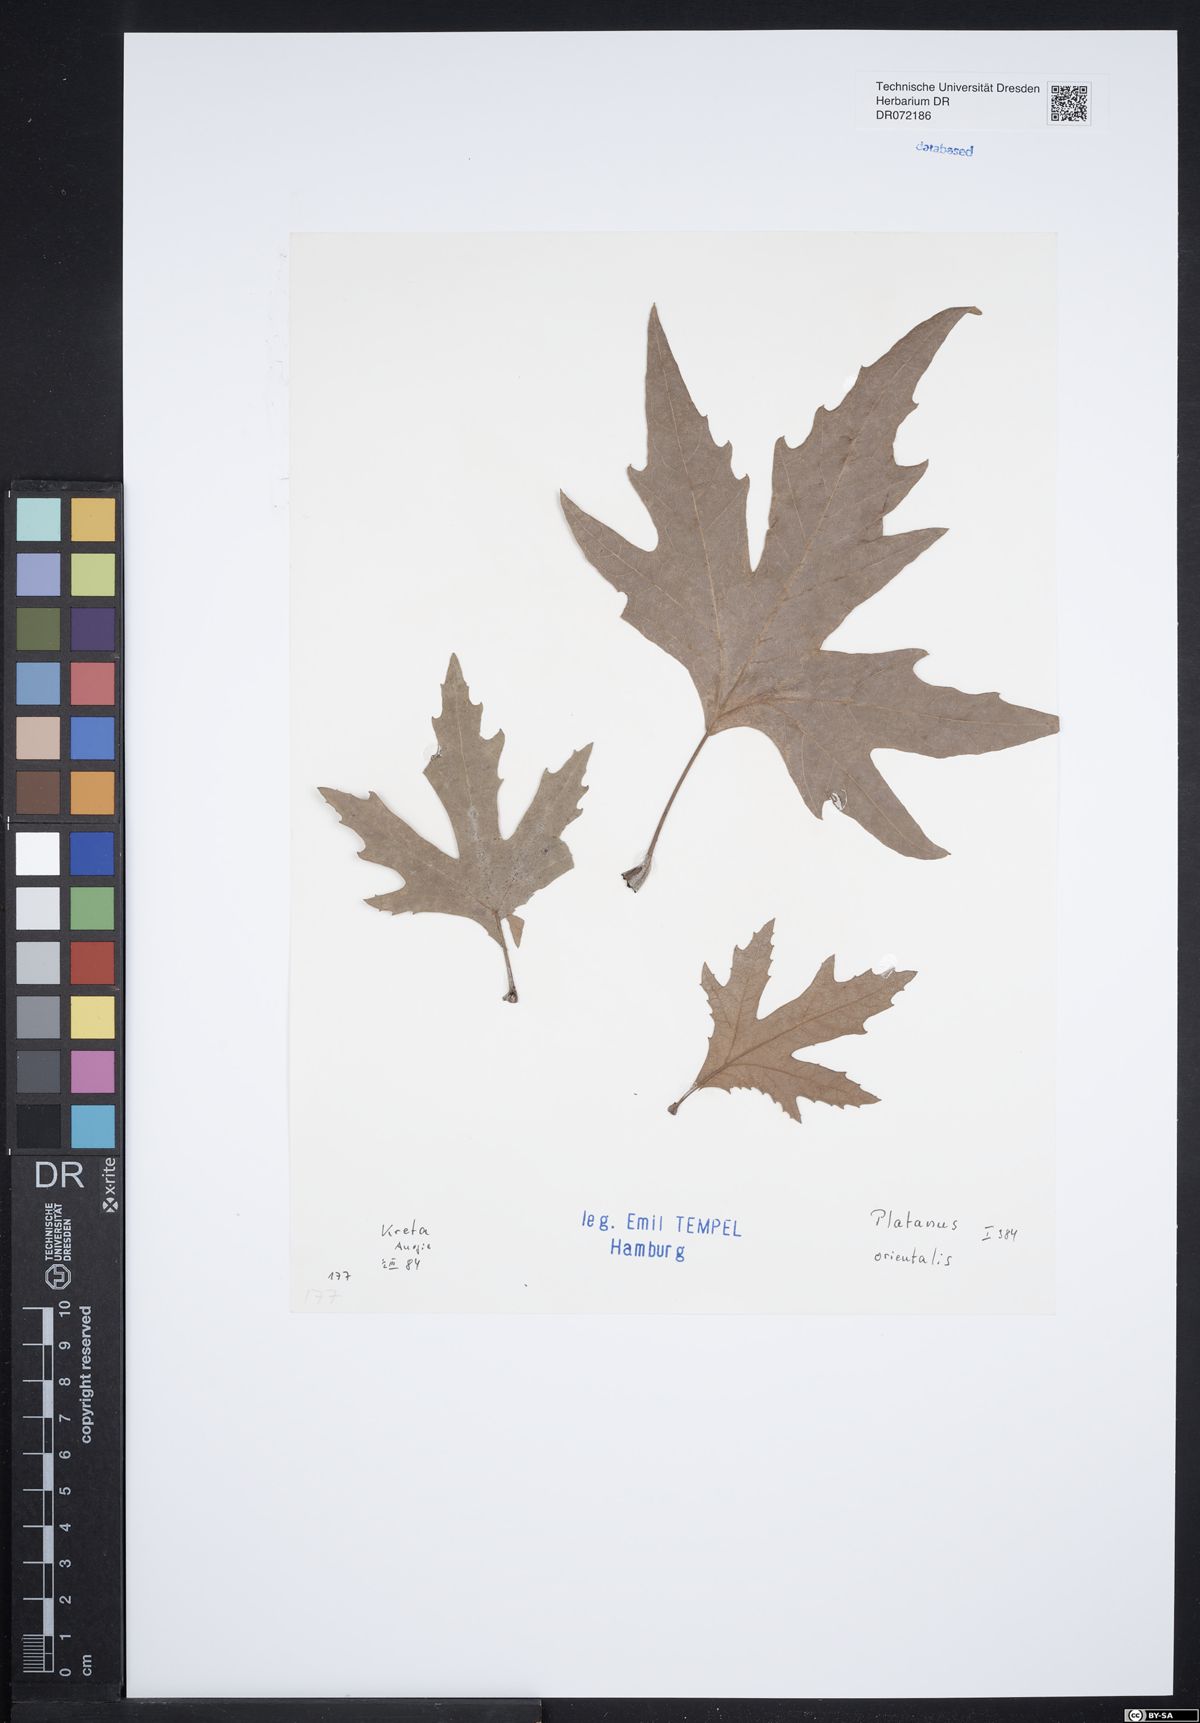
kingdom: Plantae
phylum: Tracheophyta
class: Magnoliopsida
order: Proteales
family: Platanaceae
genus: Platanus
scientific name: Platanus orientalis
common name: Oriental plane
